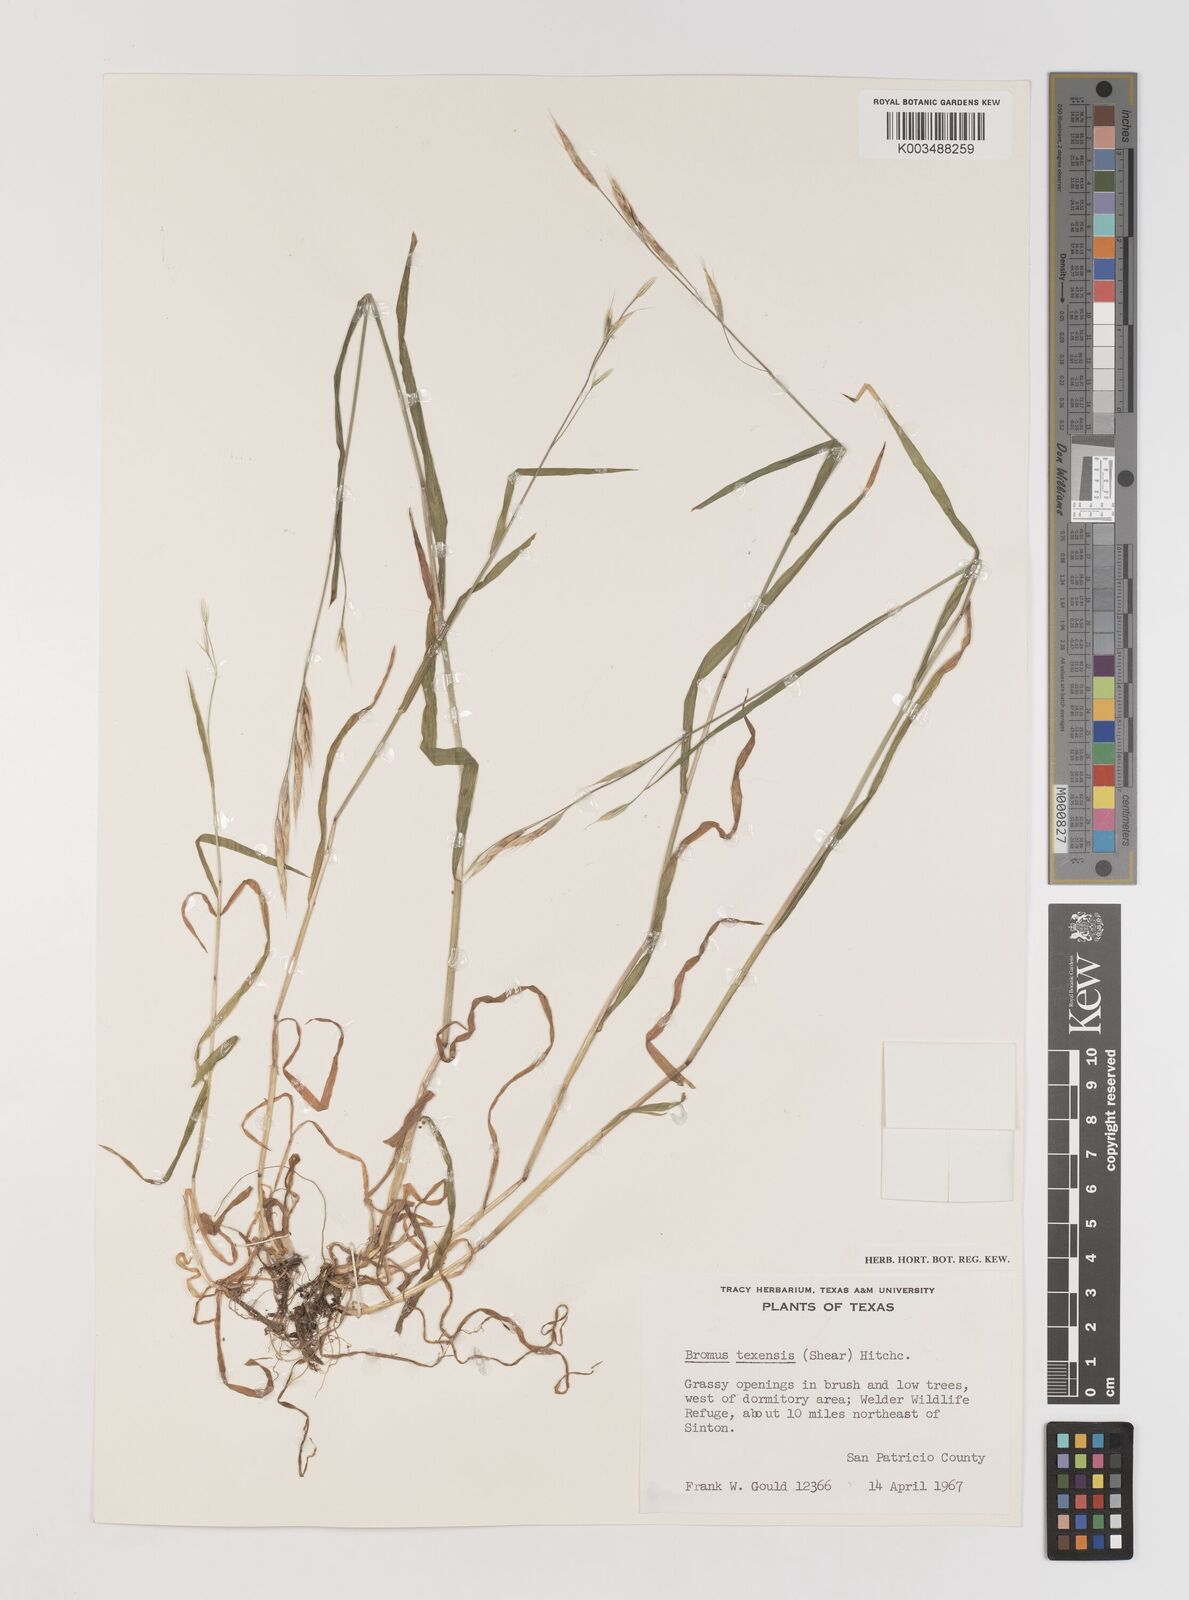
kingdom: Plantae
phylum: Tracheophyta
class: Liliopsida
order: Poales
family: Poaceae
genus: Bromus
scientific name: Bromus texensis
